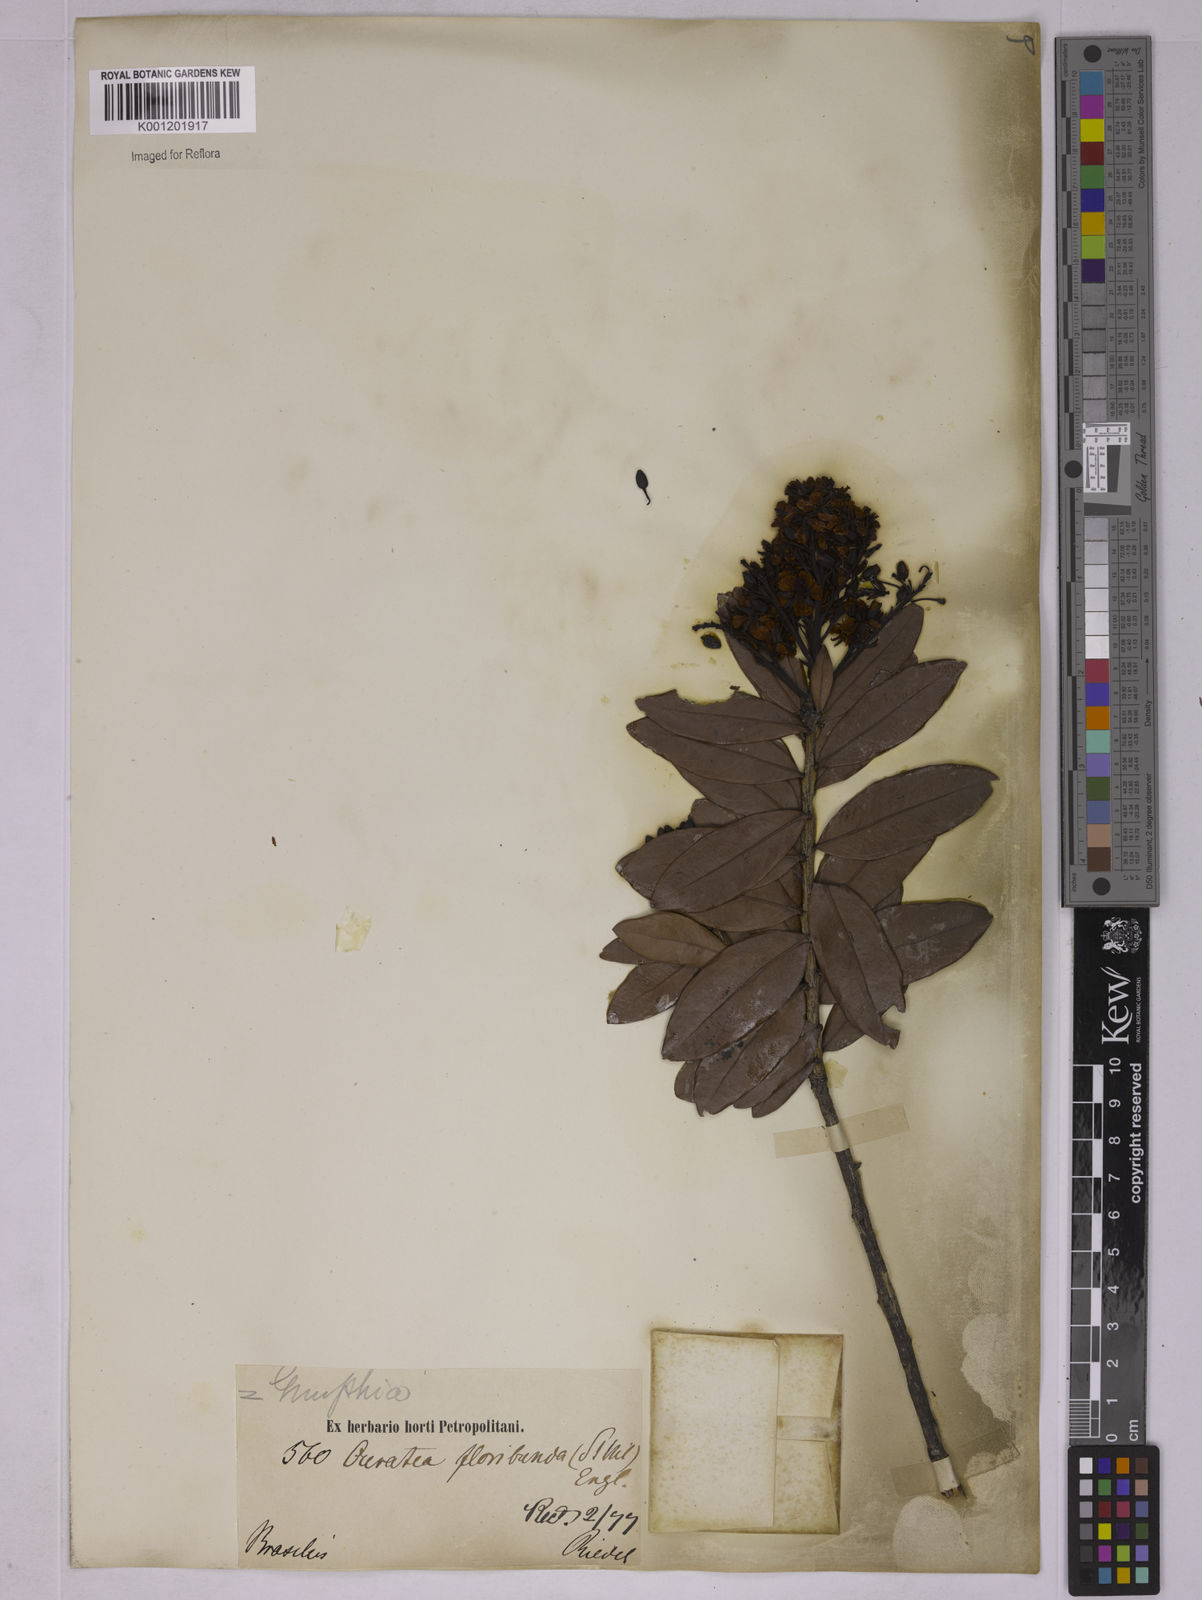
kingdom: Plantae
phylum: Tracheophyta
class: Magnoliopsida
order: Malpighiales
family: Ochnaceae
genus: Ouratea
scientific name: Ouratea floribunda
